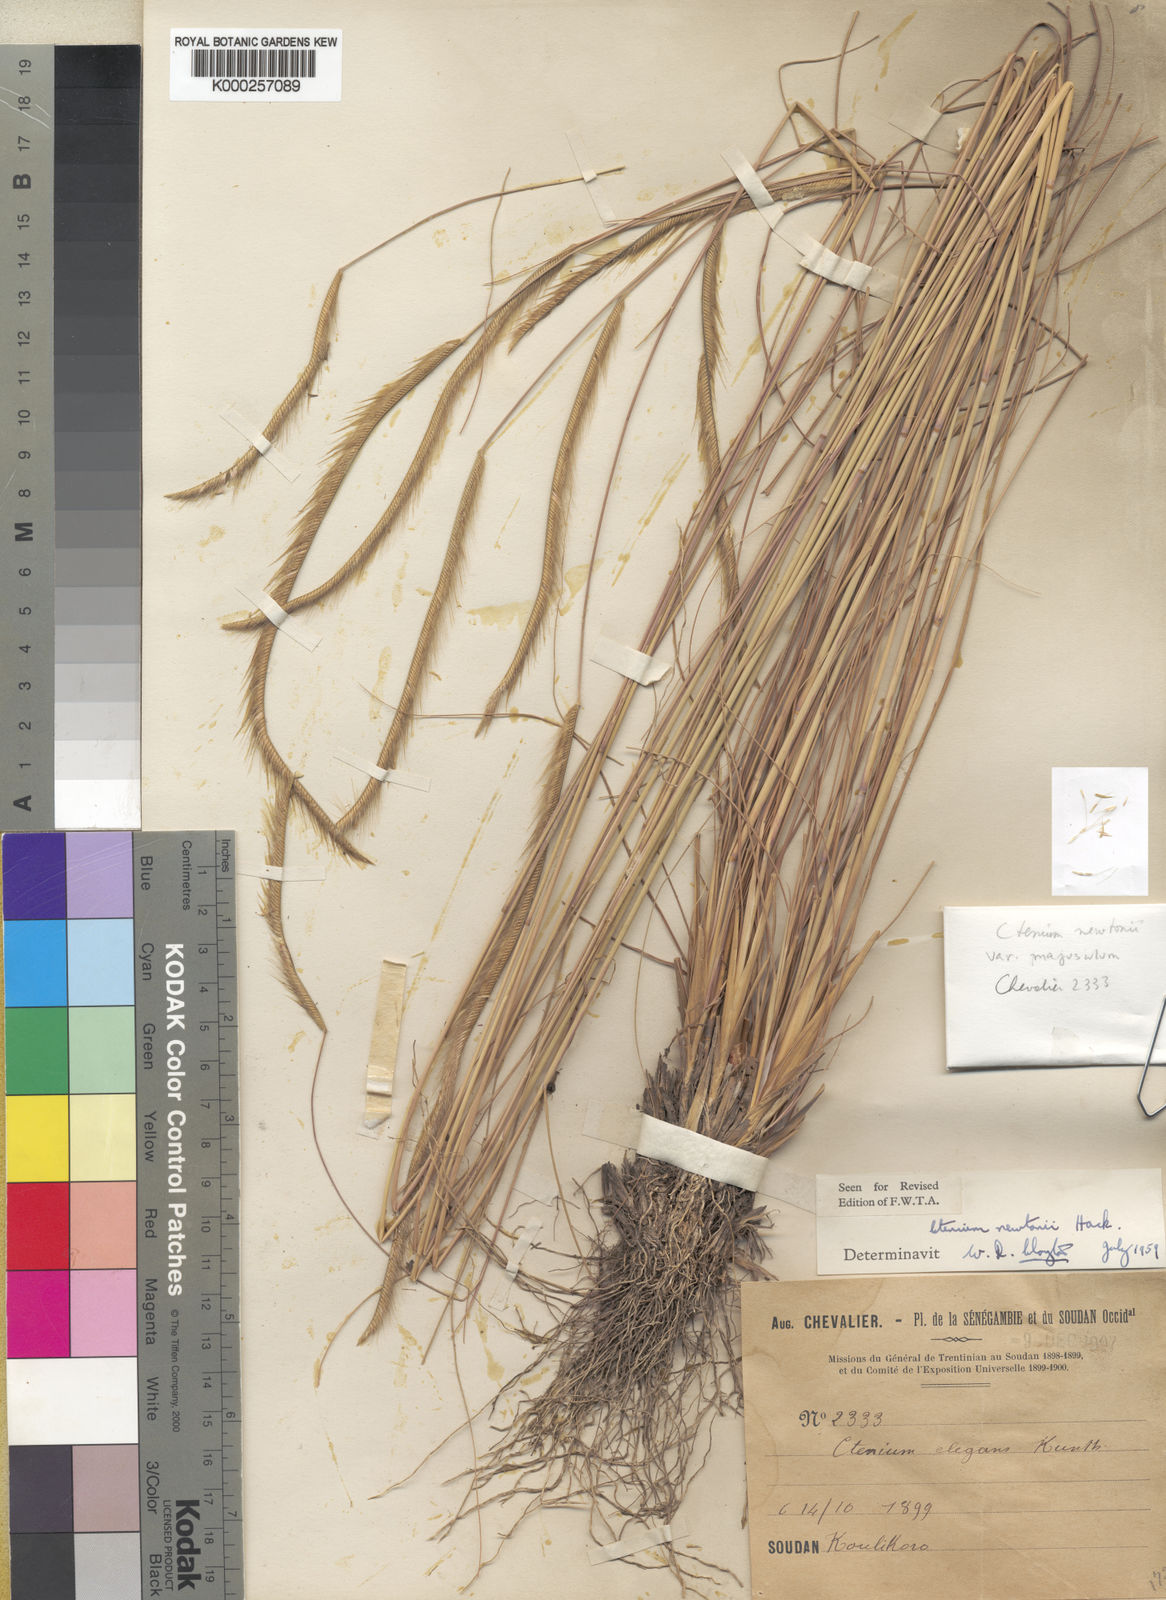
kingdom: Plantae
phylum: Tracheophyta
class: Liliopsida
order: Poales
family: Poaceae
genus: Ctenium
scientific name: Ctenium newtonii
